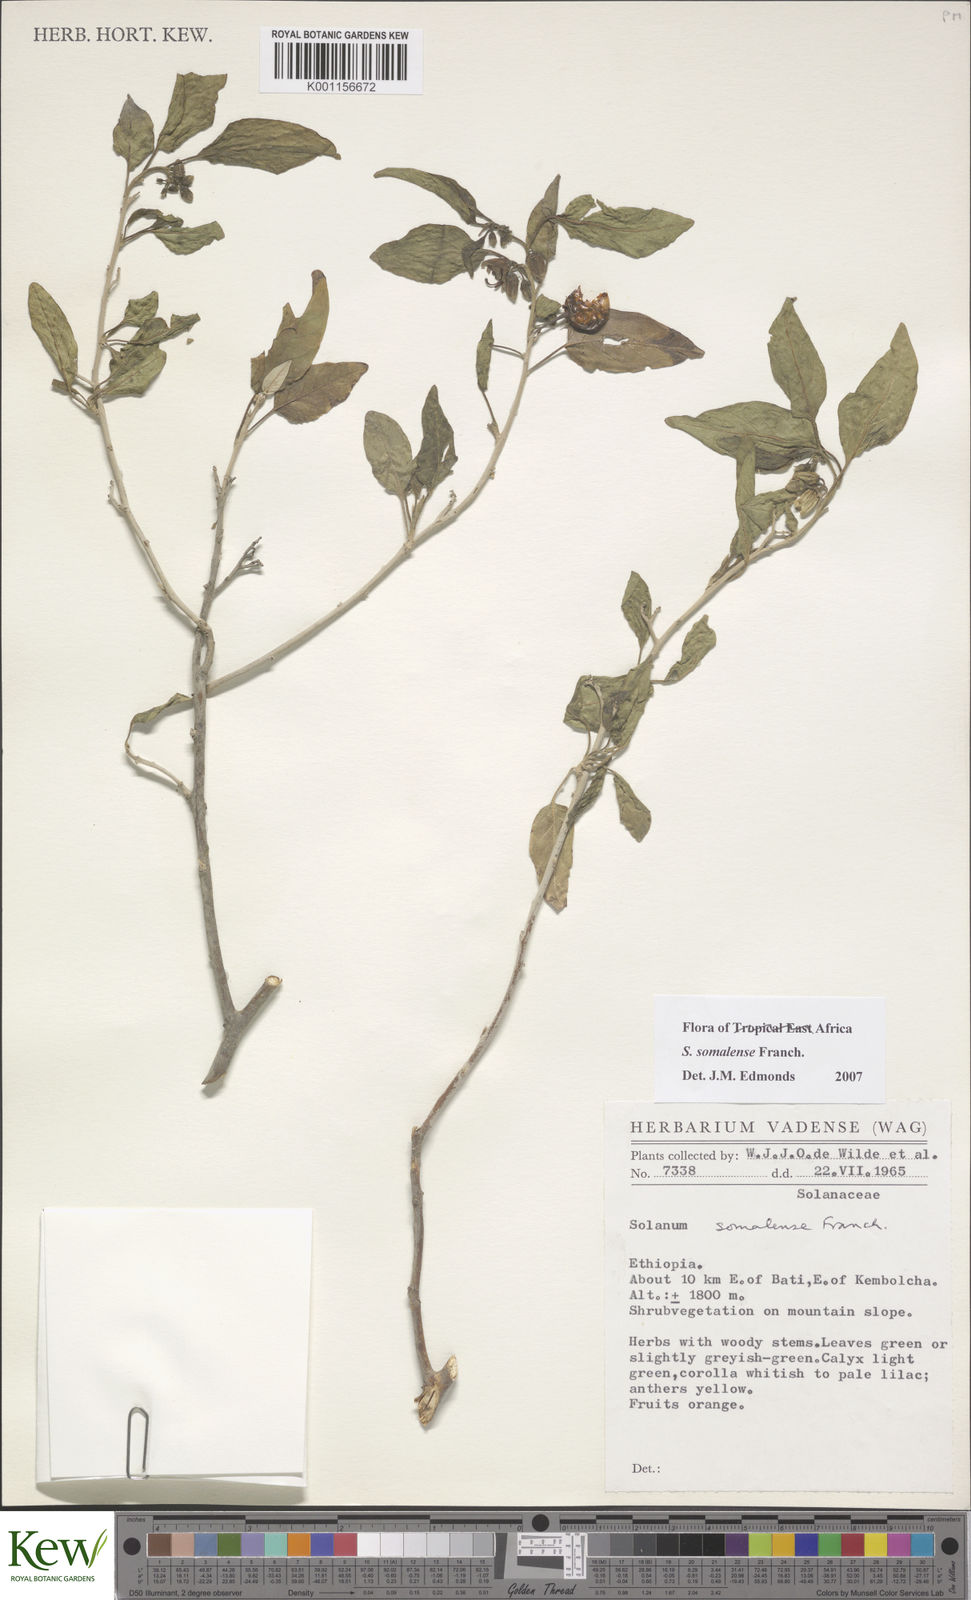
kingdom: Plantae
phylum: Tracheophyta
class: Magnoliopsida
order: Solanales
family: Solanaceae
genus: Solanum
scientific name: Solanum somalense
